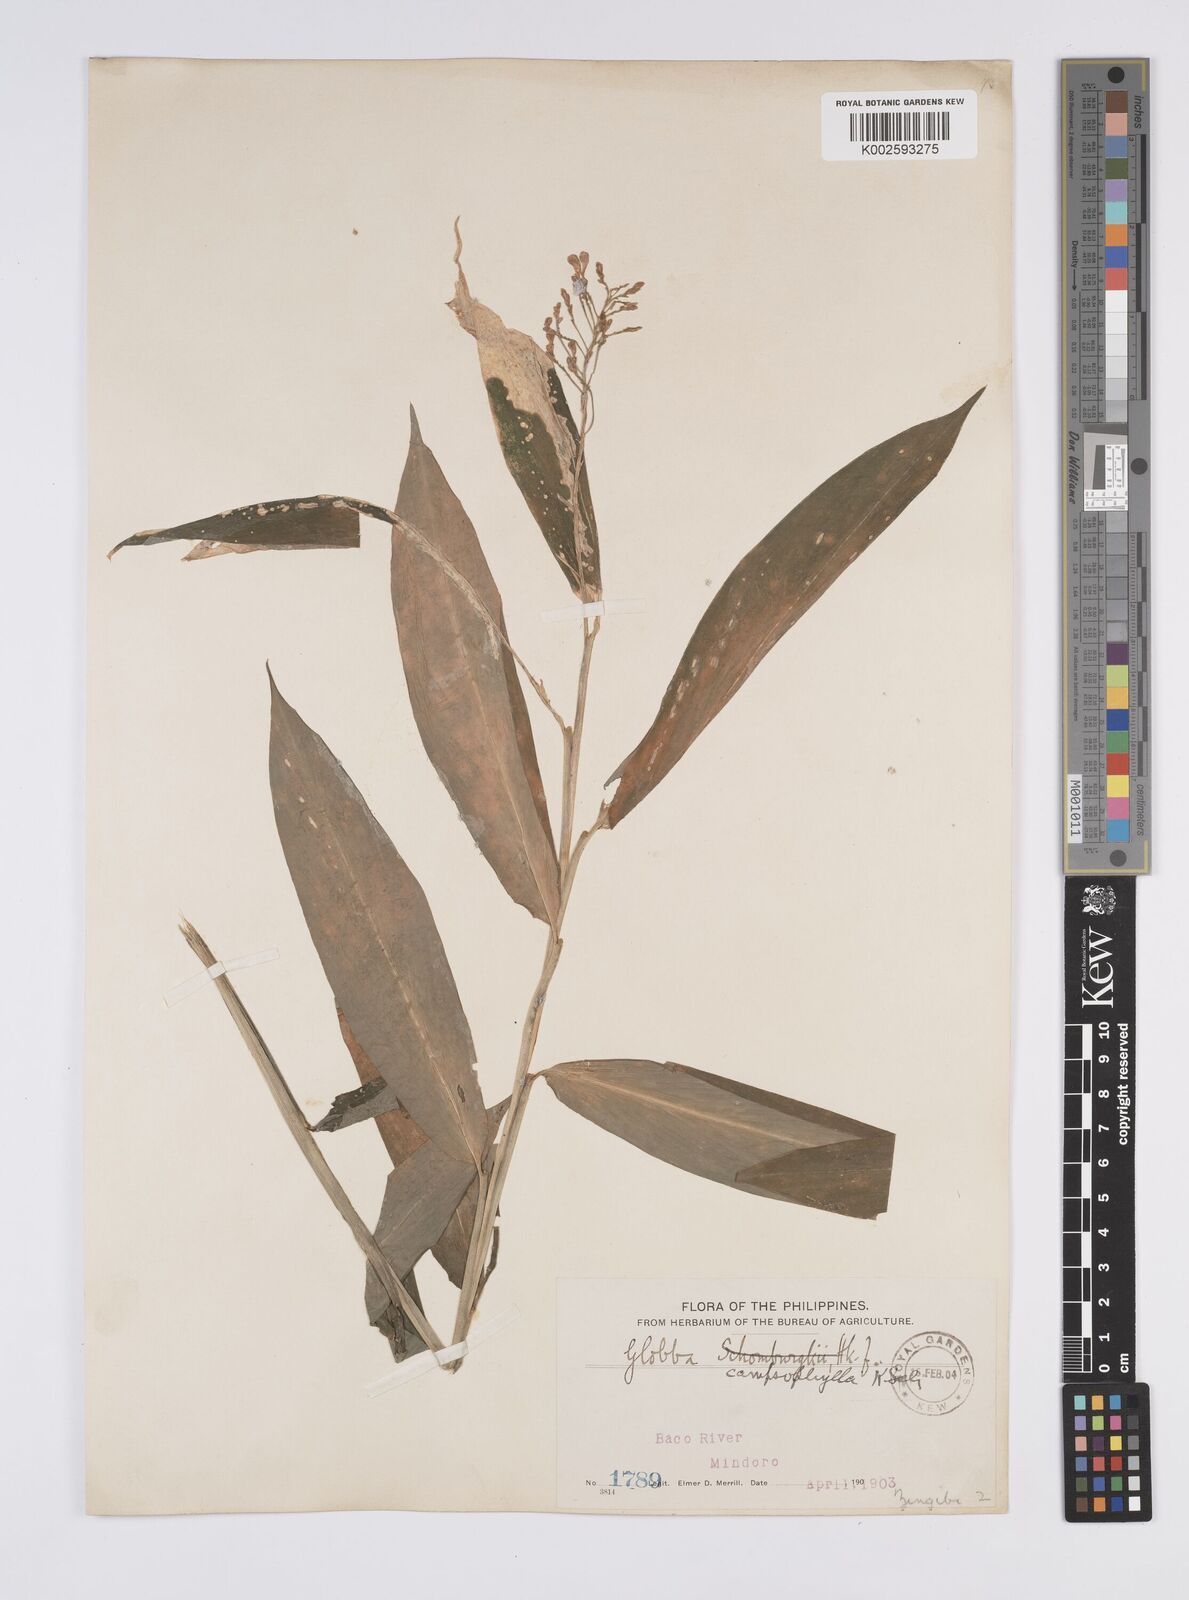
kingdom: Plantae
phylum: Tracheophyta
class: Liliopsida
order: Zingiberales
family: Zingiberaceae
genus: Globba
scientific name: Globba campsophylla
